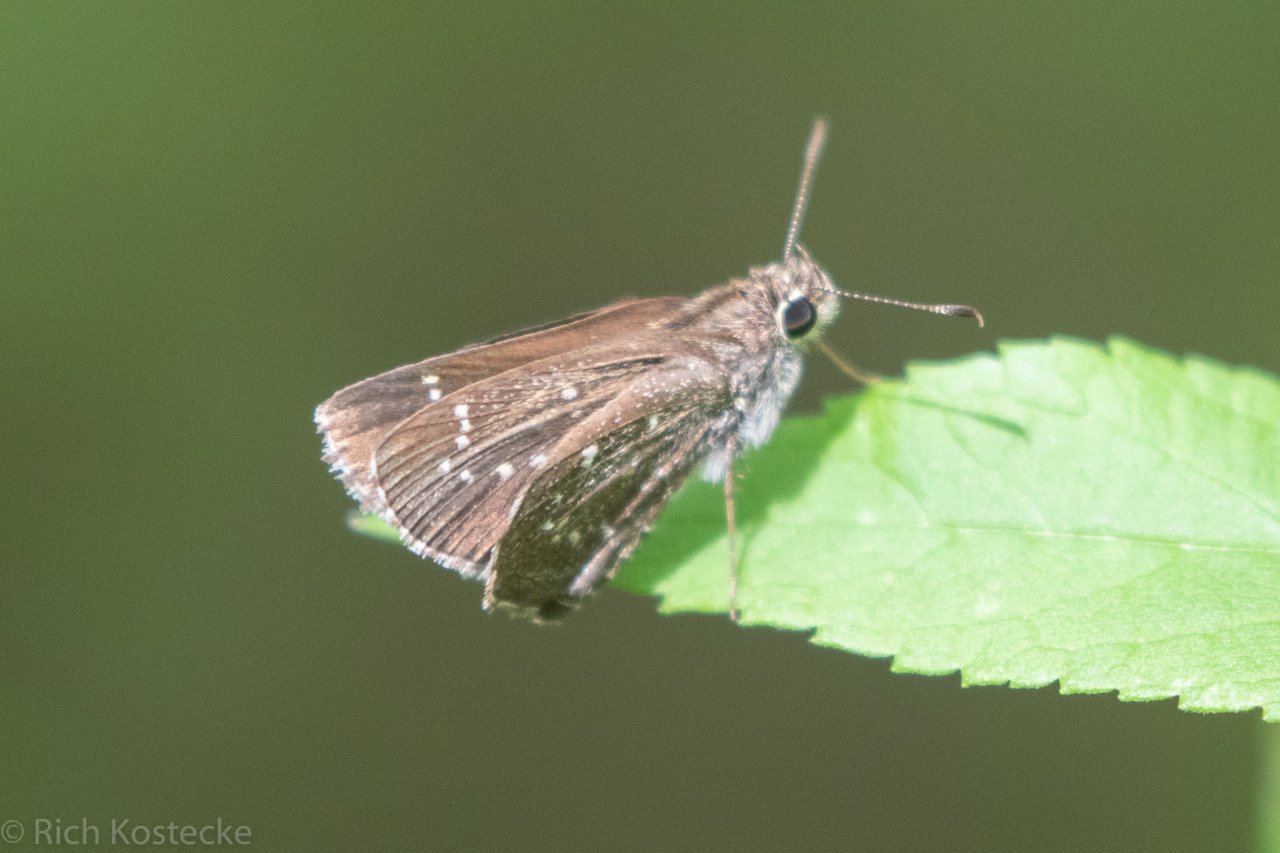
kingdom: Animalia
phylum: Arthropoda
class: Insecta
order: Lepidoptera
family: Hesperiidae
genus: Mastor
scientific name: Mastor celia
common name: Celia's Roadside-Skipper
